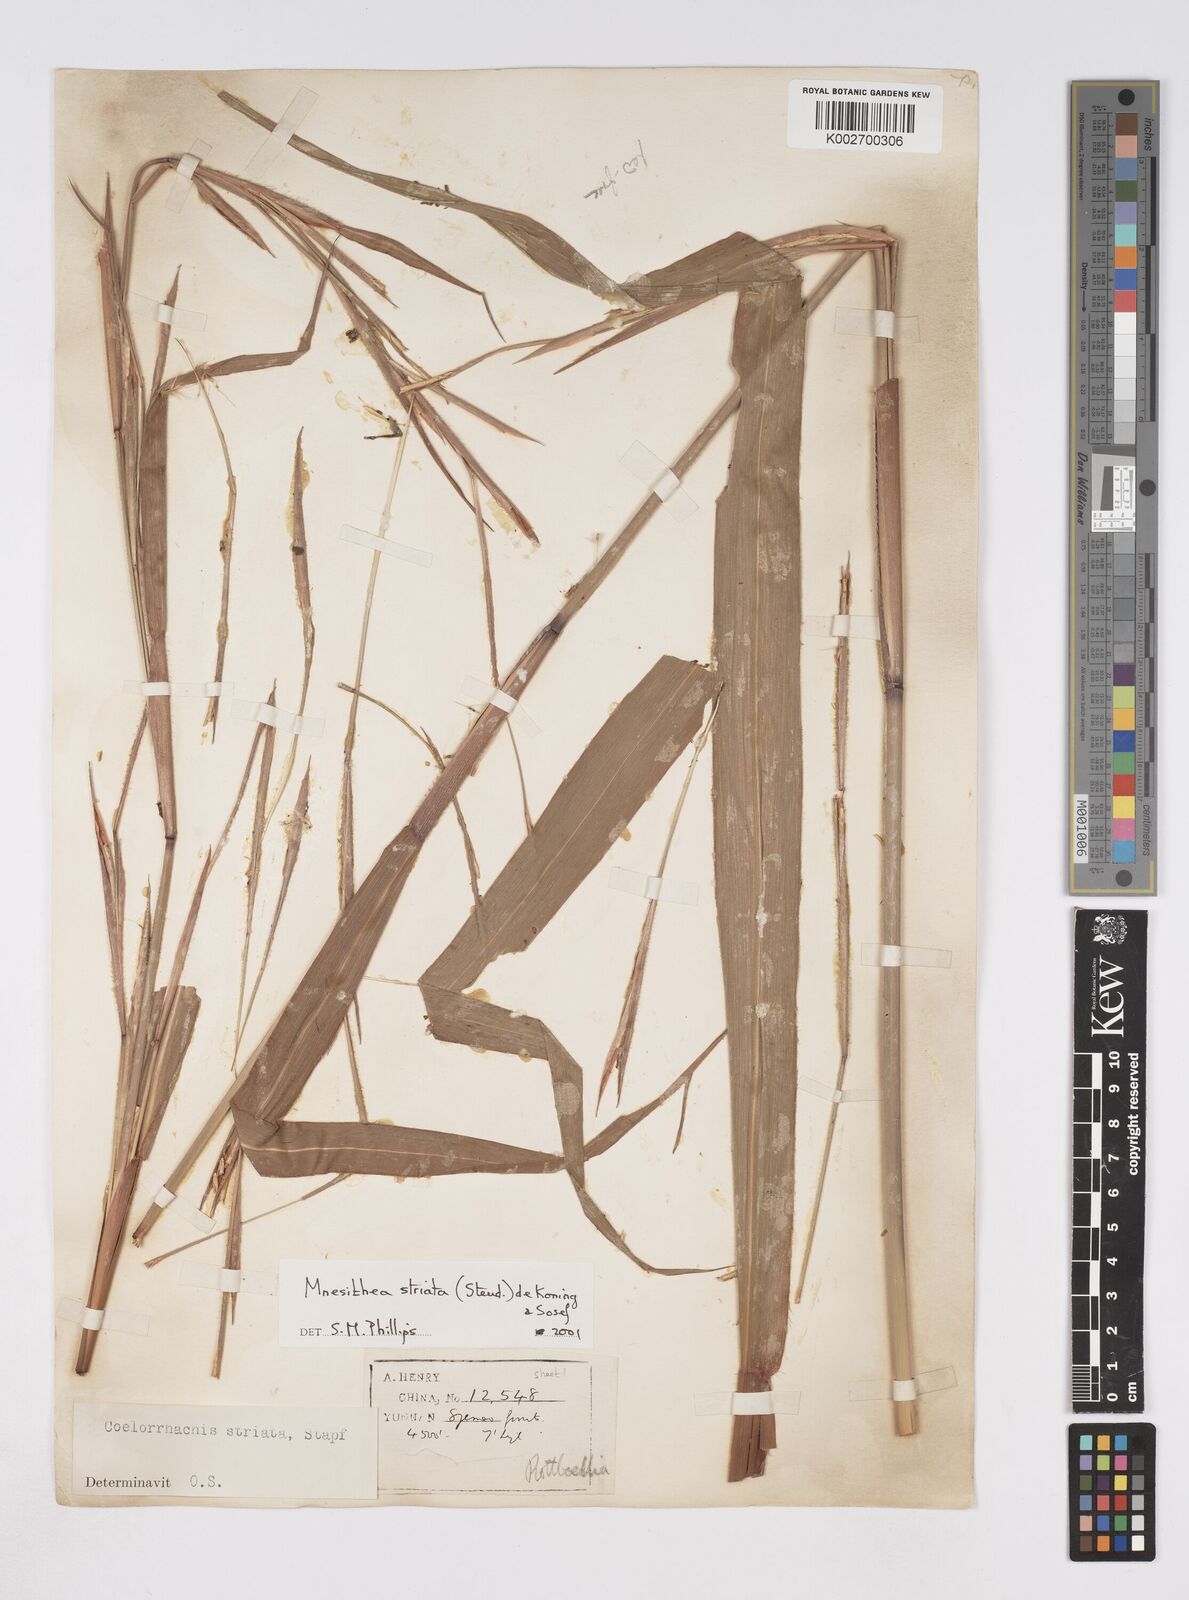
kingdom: Plantae
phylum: Tracheophyta
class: Liliopsida
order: Poales
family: Poaceae
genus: Rottboellia
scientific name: Rottboellia striata
